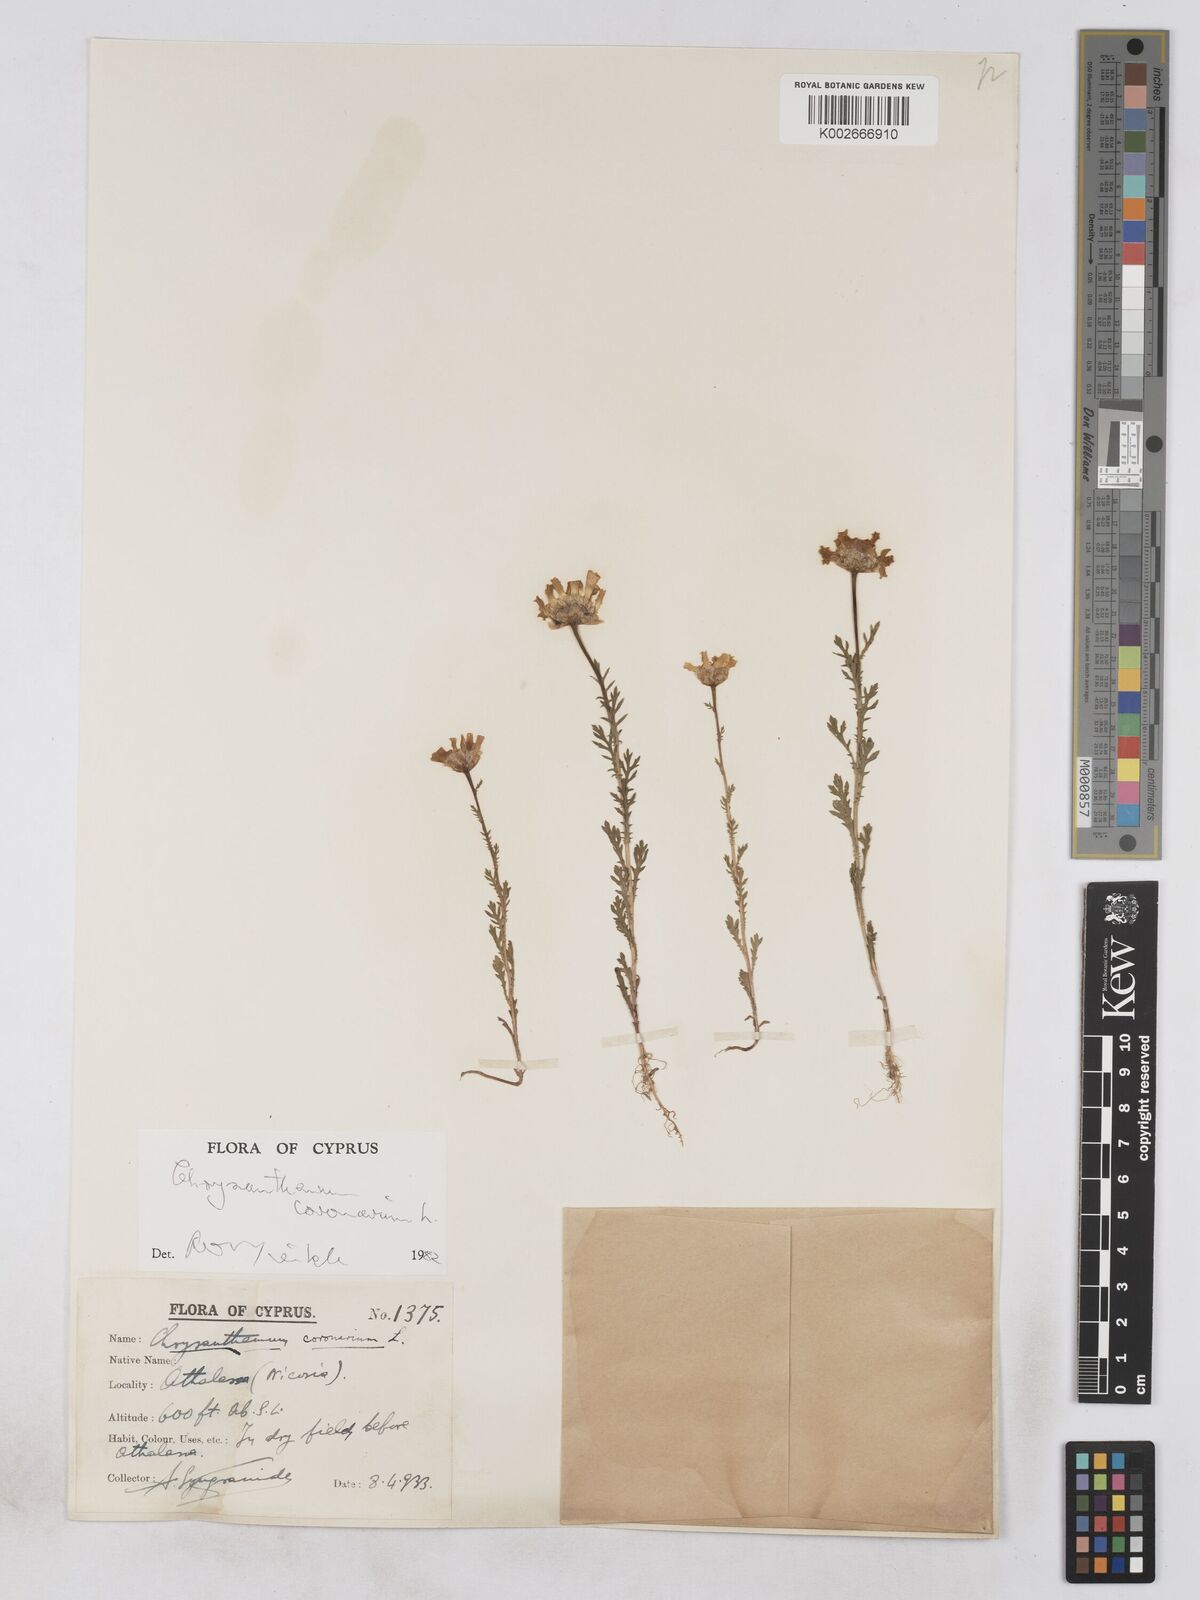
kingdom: Plantae
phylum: Tracheophyta
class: Magnoliopsida
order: Asterales
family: Asteraceae
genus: Glebionis
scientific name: Glebionis coronaria
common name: Crowndaisy
